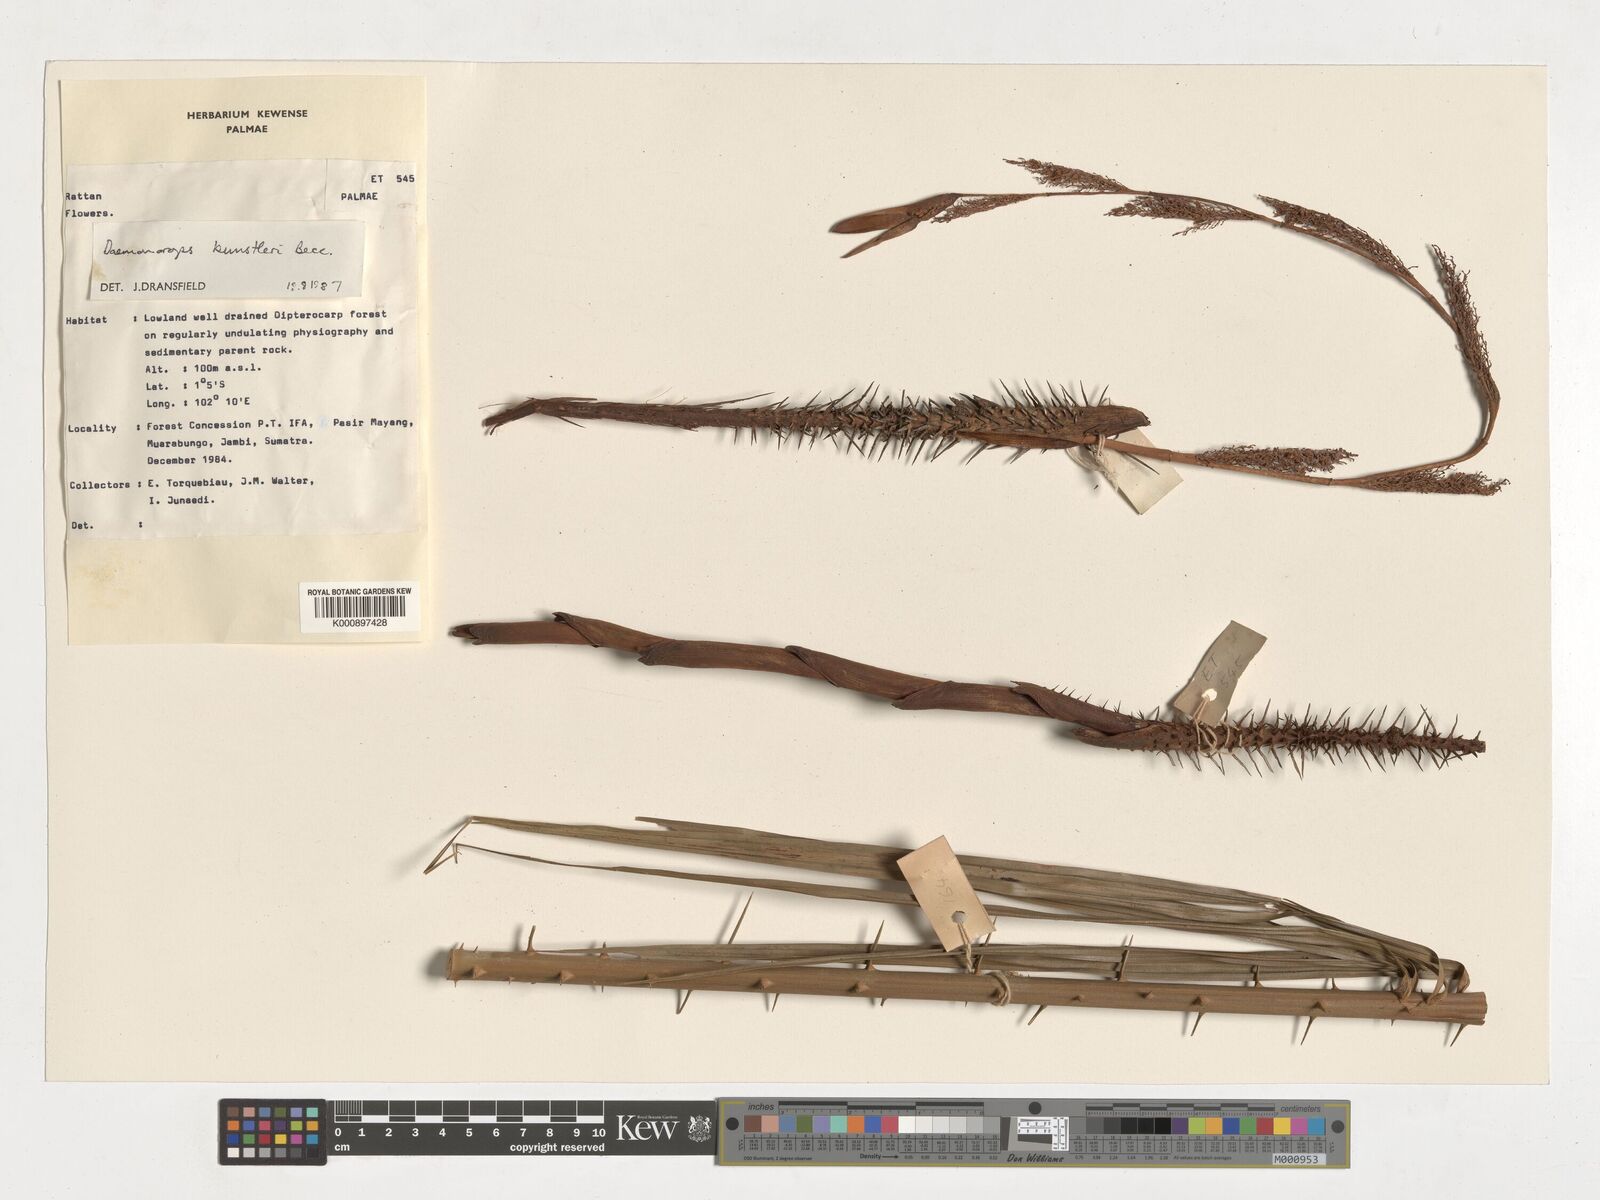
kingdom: Plantae
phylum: Tracheophyta
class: Liliopsida
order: Arecales
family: Arecaceae
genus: Calamus
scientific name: Calamus kunstleri
